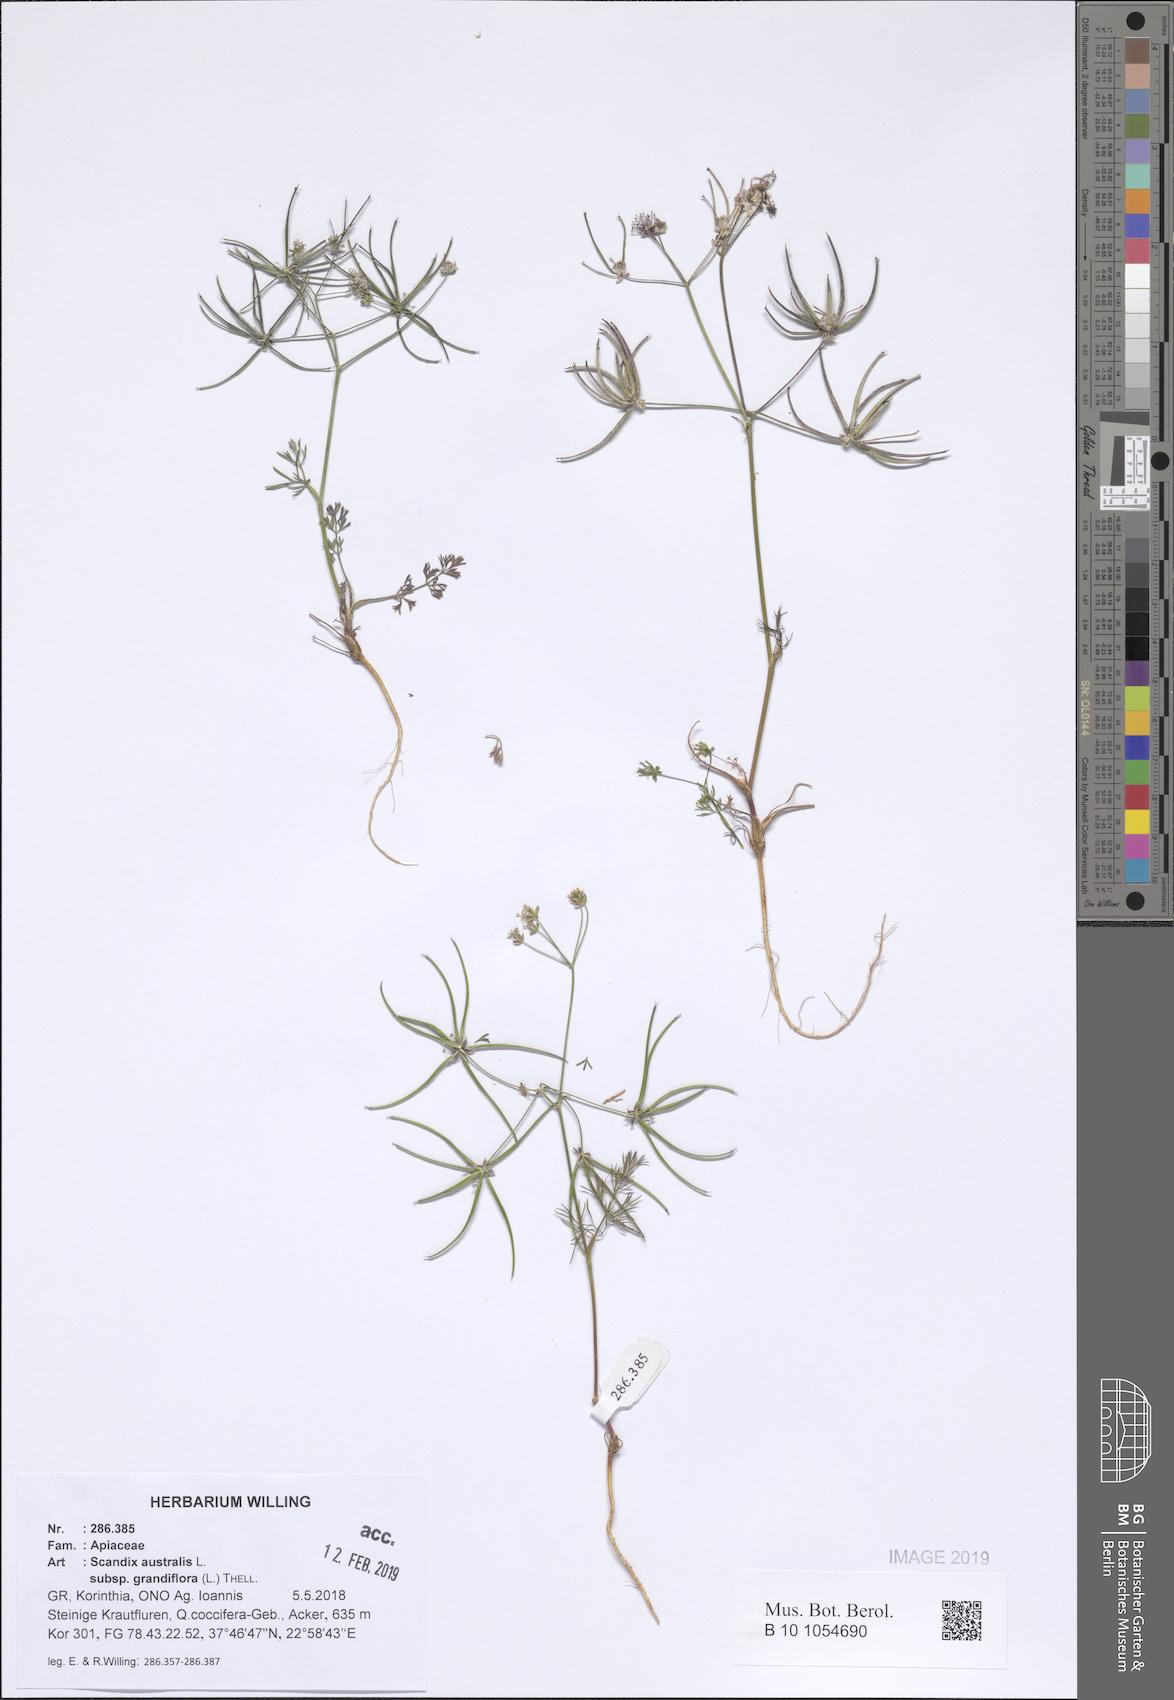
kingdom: Plantae
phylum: Tracheophyta
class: Magnoliopsida
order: Apiales
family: Apiaceae
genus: Scandix
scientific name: Scandix australis
